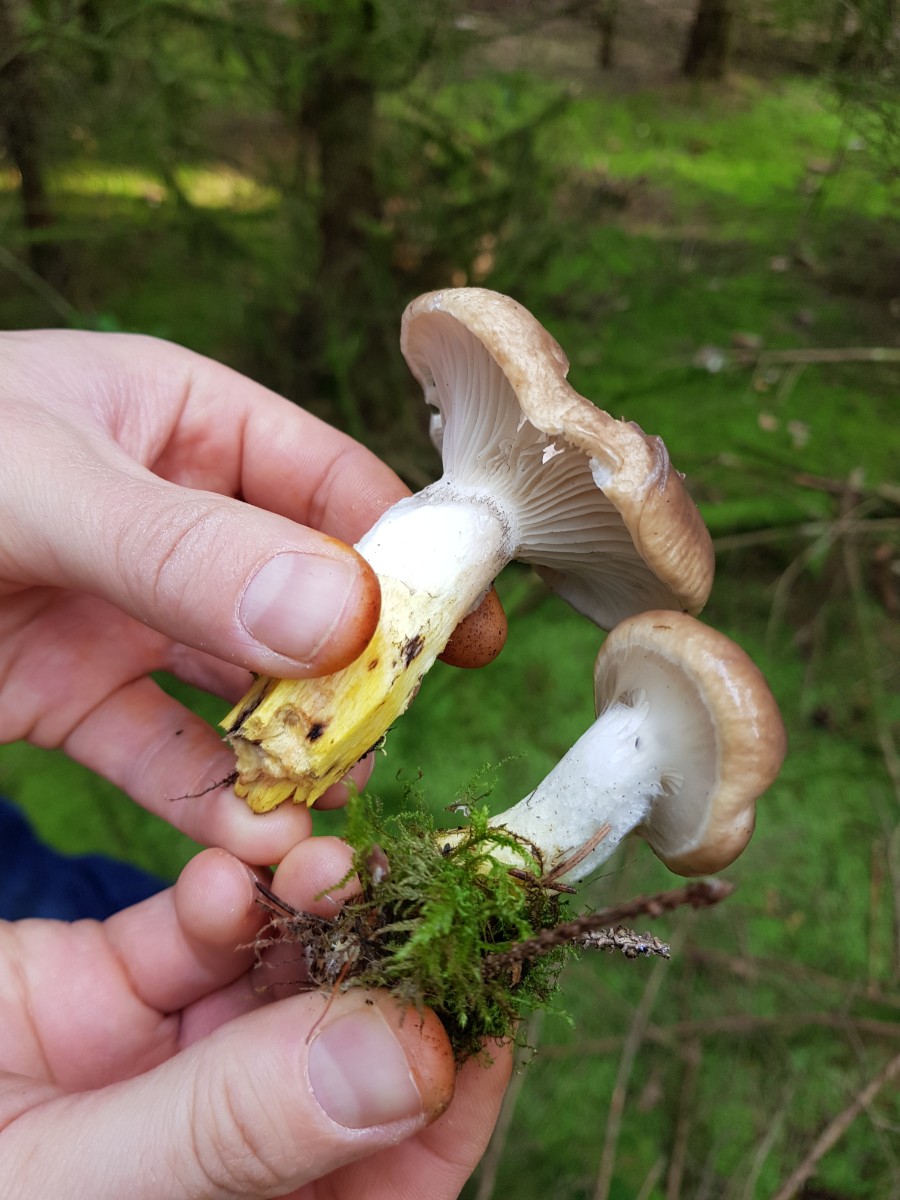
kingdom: Fungi
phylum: Basidiomycota
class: Agaricomycetes
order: Boletales
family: Gomphidiaceae
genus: Gomphidius
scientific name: Gomphidius glutinosus
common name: grå slimslør
